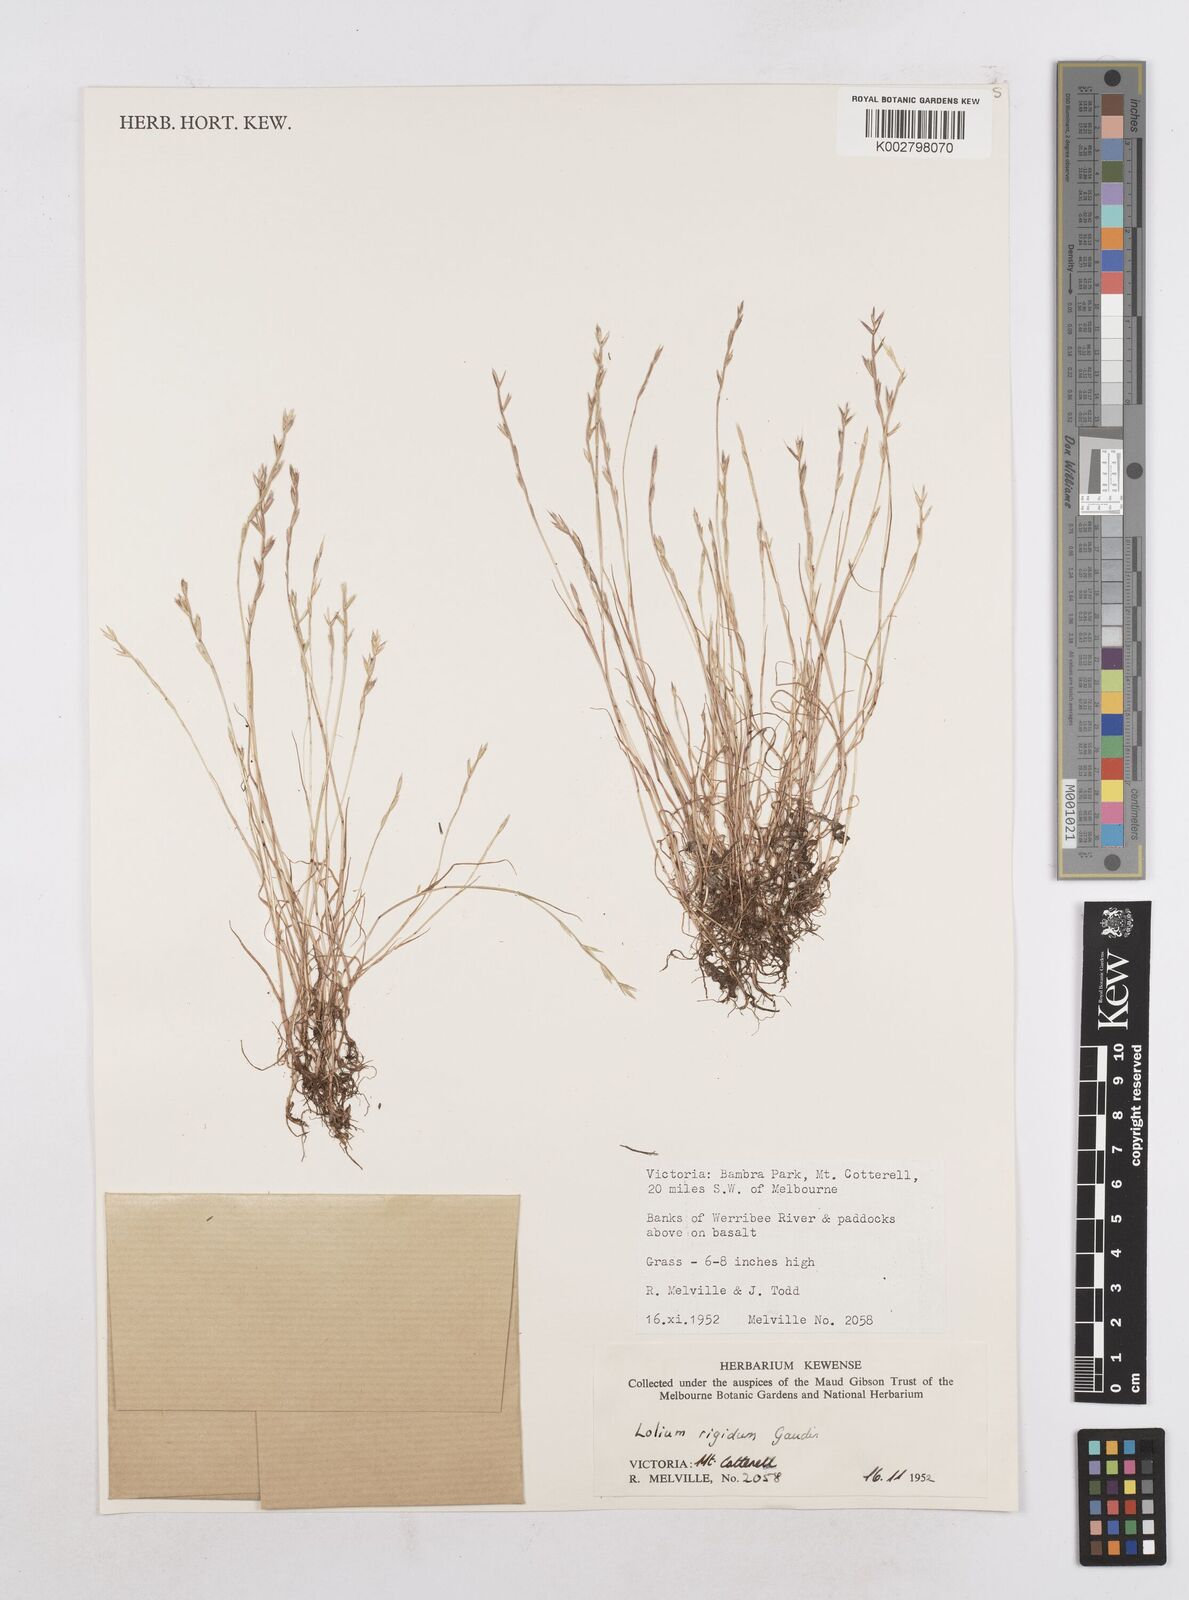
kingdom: Plantae
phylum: Tracheophyta
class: Liliopsida
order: Poales
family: Poaceae
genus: Lolium
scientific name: Lolium rigidum
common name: Wimmera ryegrass
